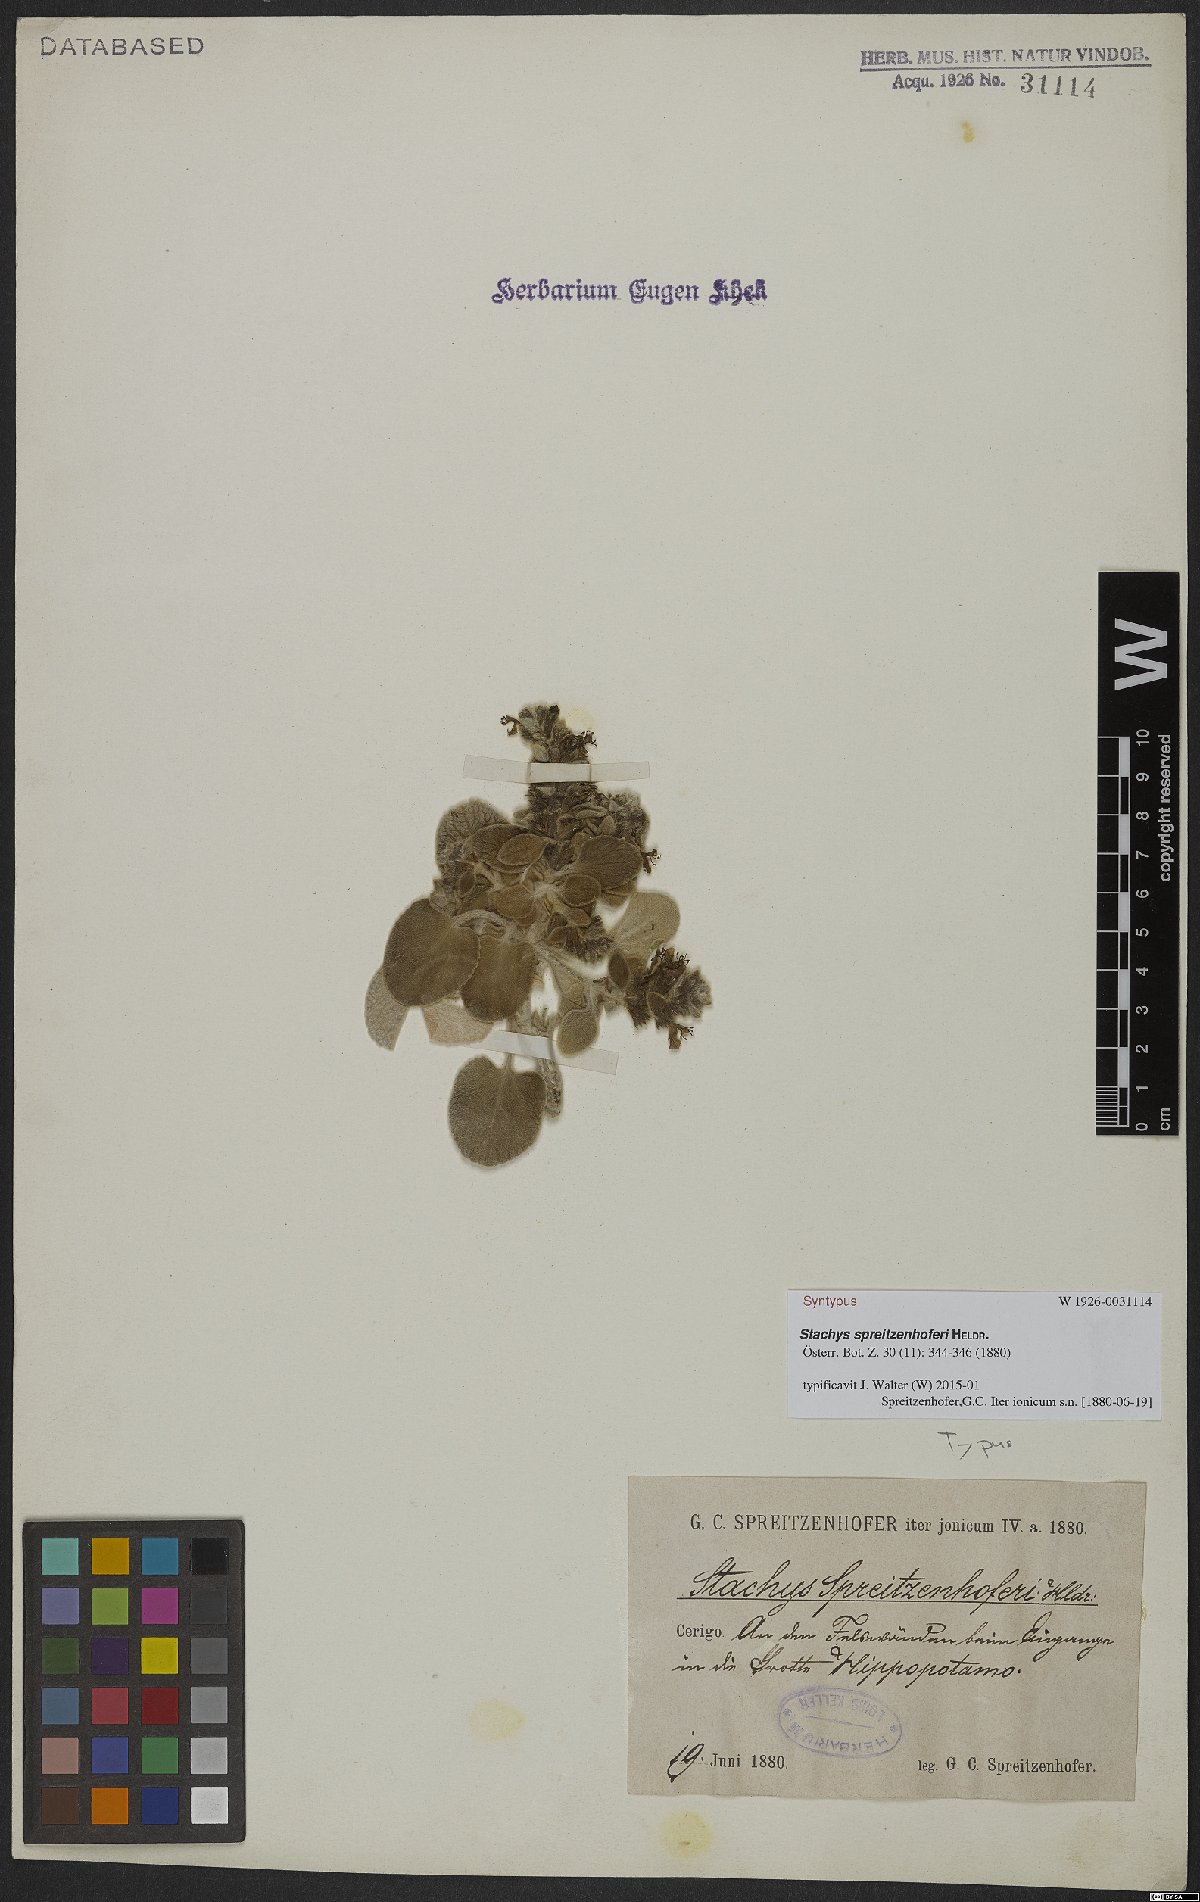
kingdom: Plantae
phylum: Tracheophyta
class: Magnoliopsida
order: Lamiales
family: Lamiaceae
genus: Stachys
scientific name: Stachys spreitzenhoferi
